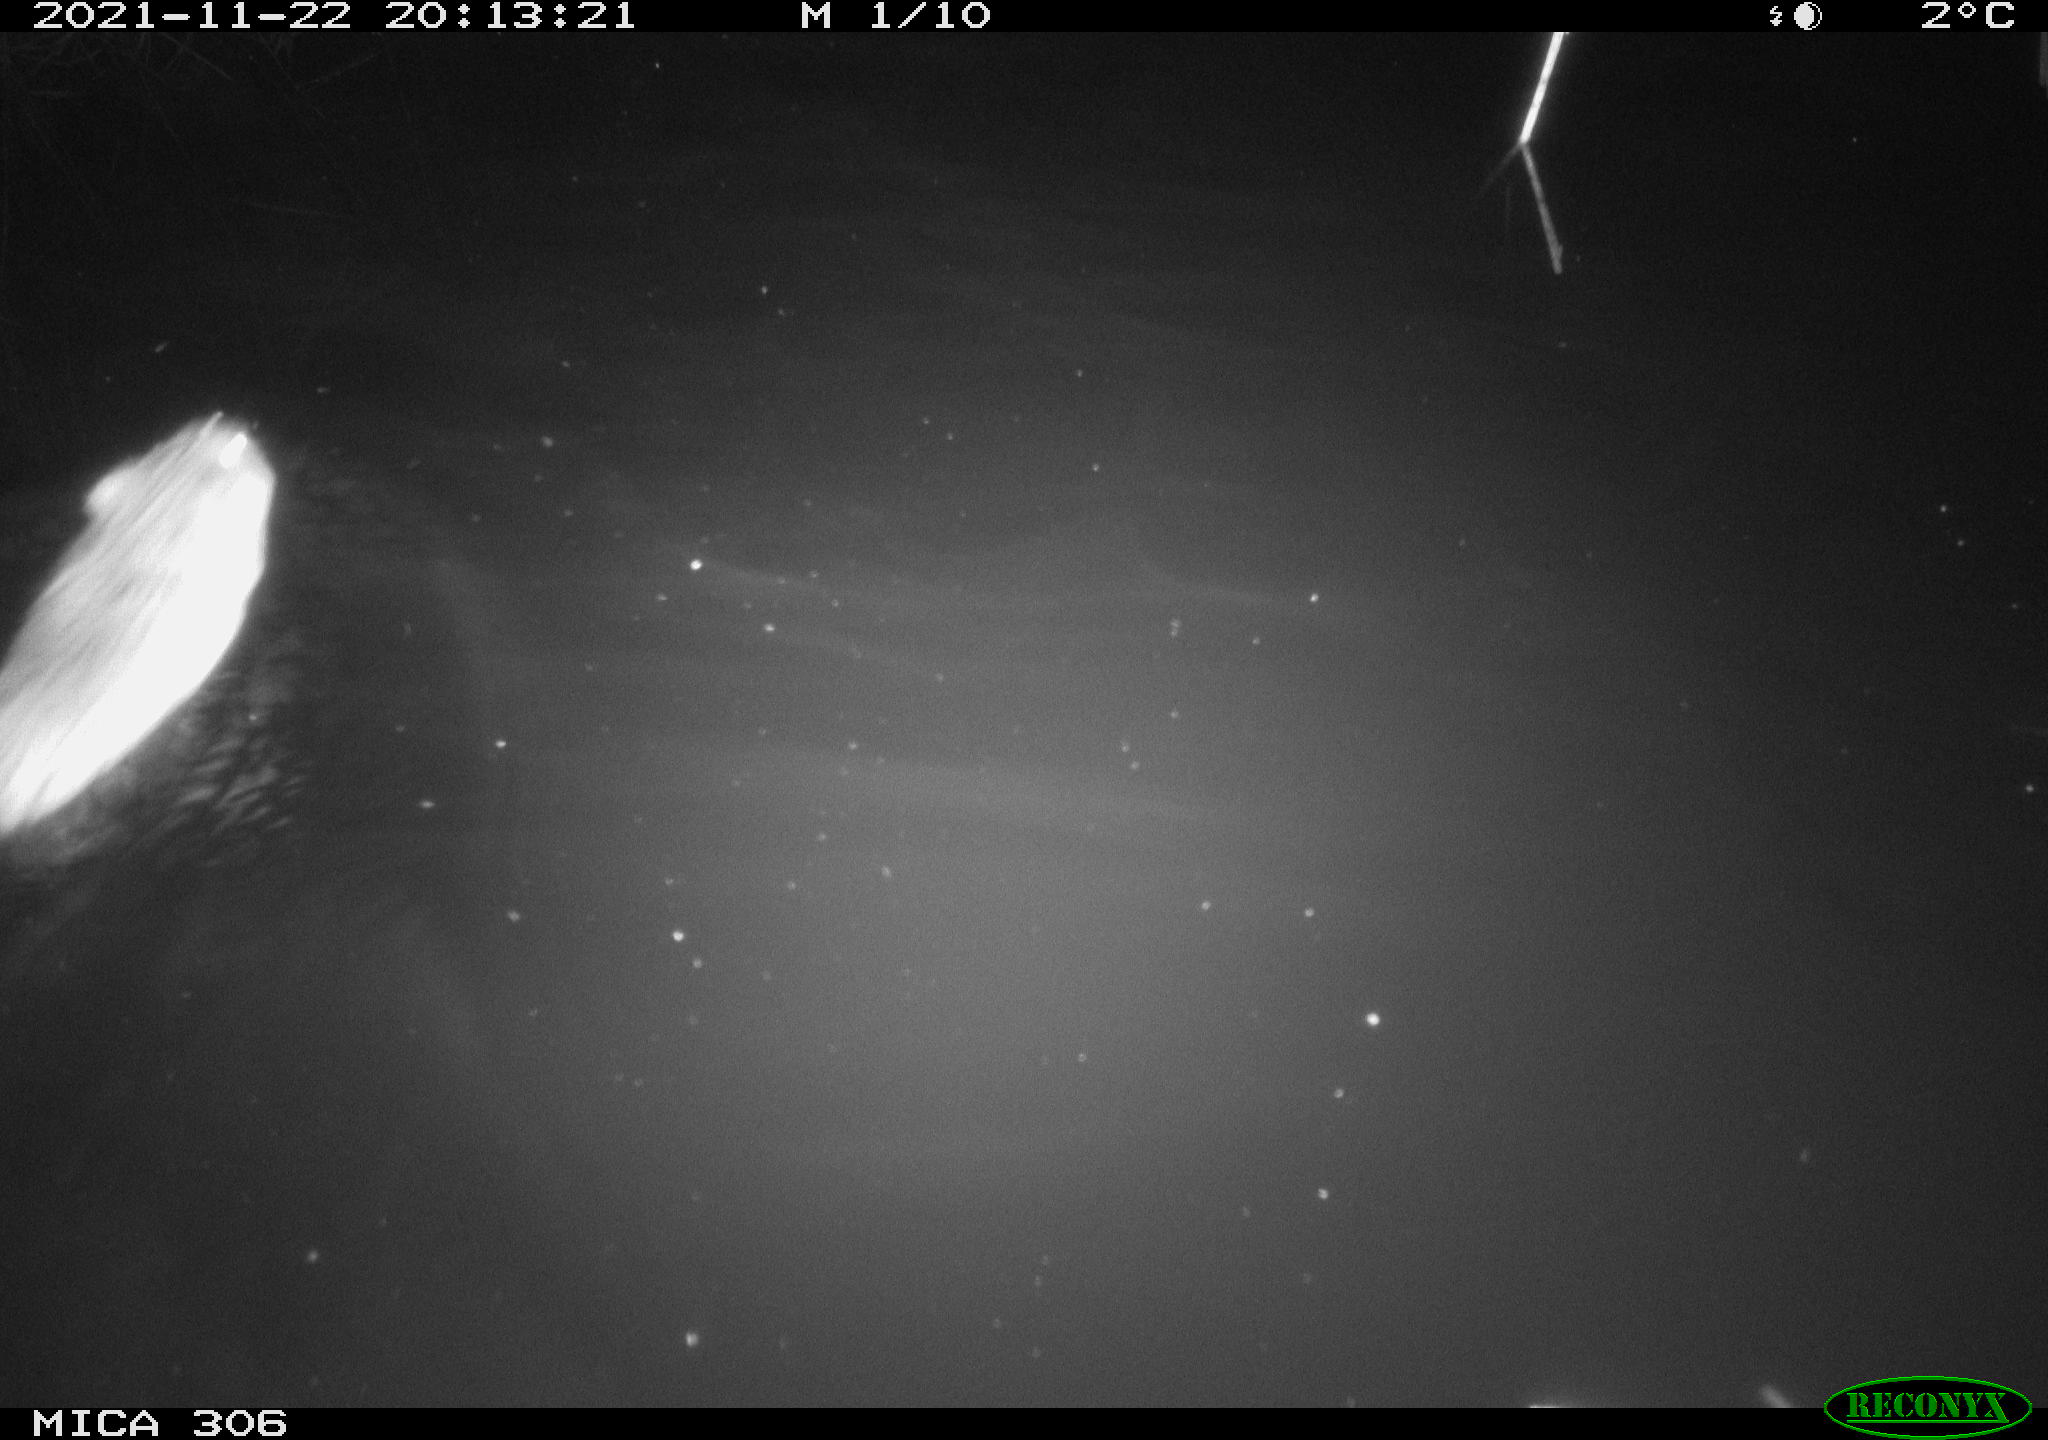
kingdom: Animalia
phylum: Chordata
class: Mammalia
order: Rodentia
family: Cricetidae
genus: Ondatra
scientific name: Ondatra zibethicus
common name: Muskrat
